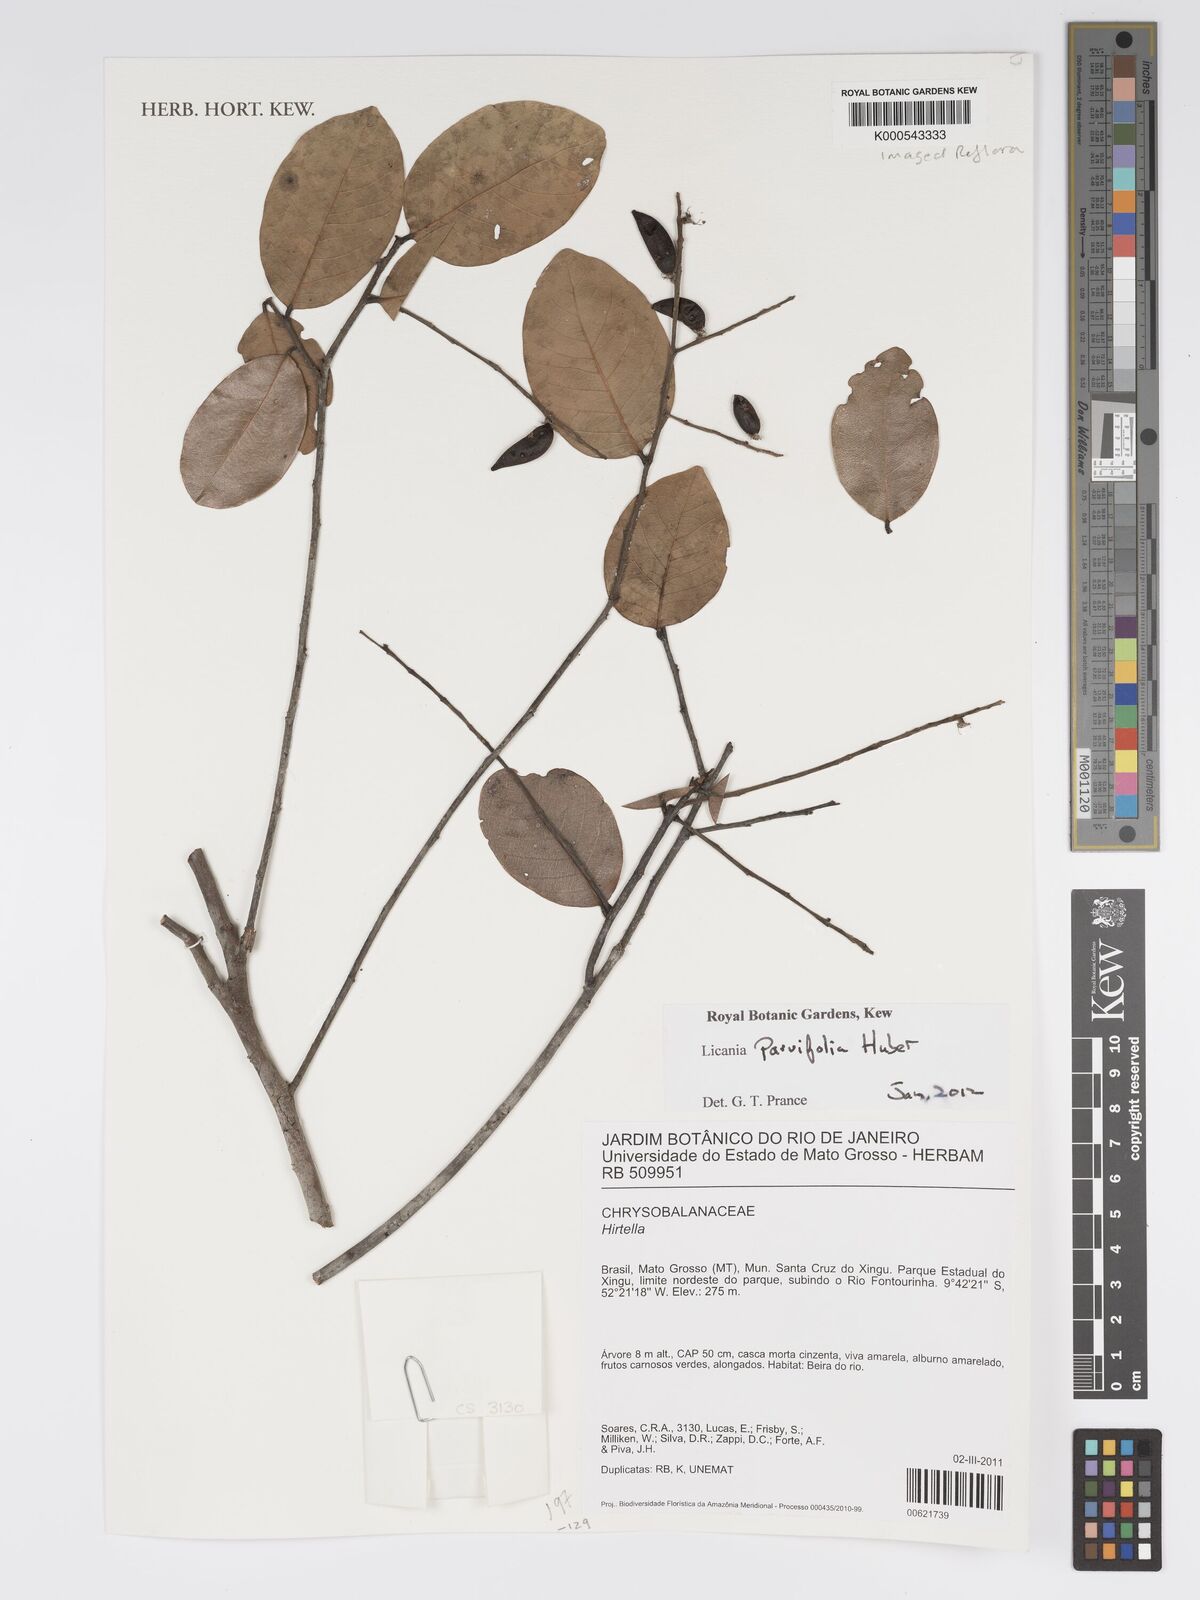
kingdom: Plantae
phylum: Tracheophyta
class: Magnoliopsida
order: Malpighiales
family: Chrysobalanaceae
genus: Licania
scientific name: Licania parvifolia
